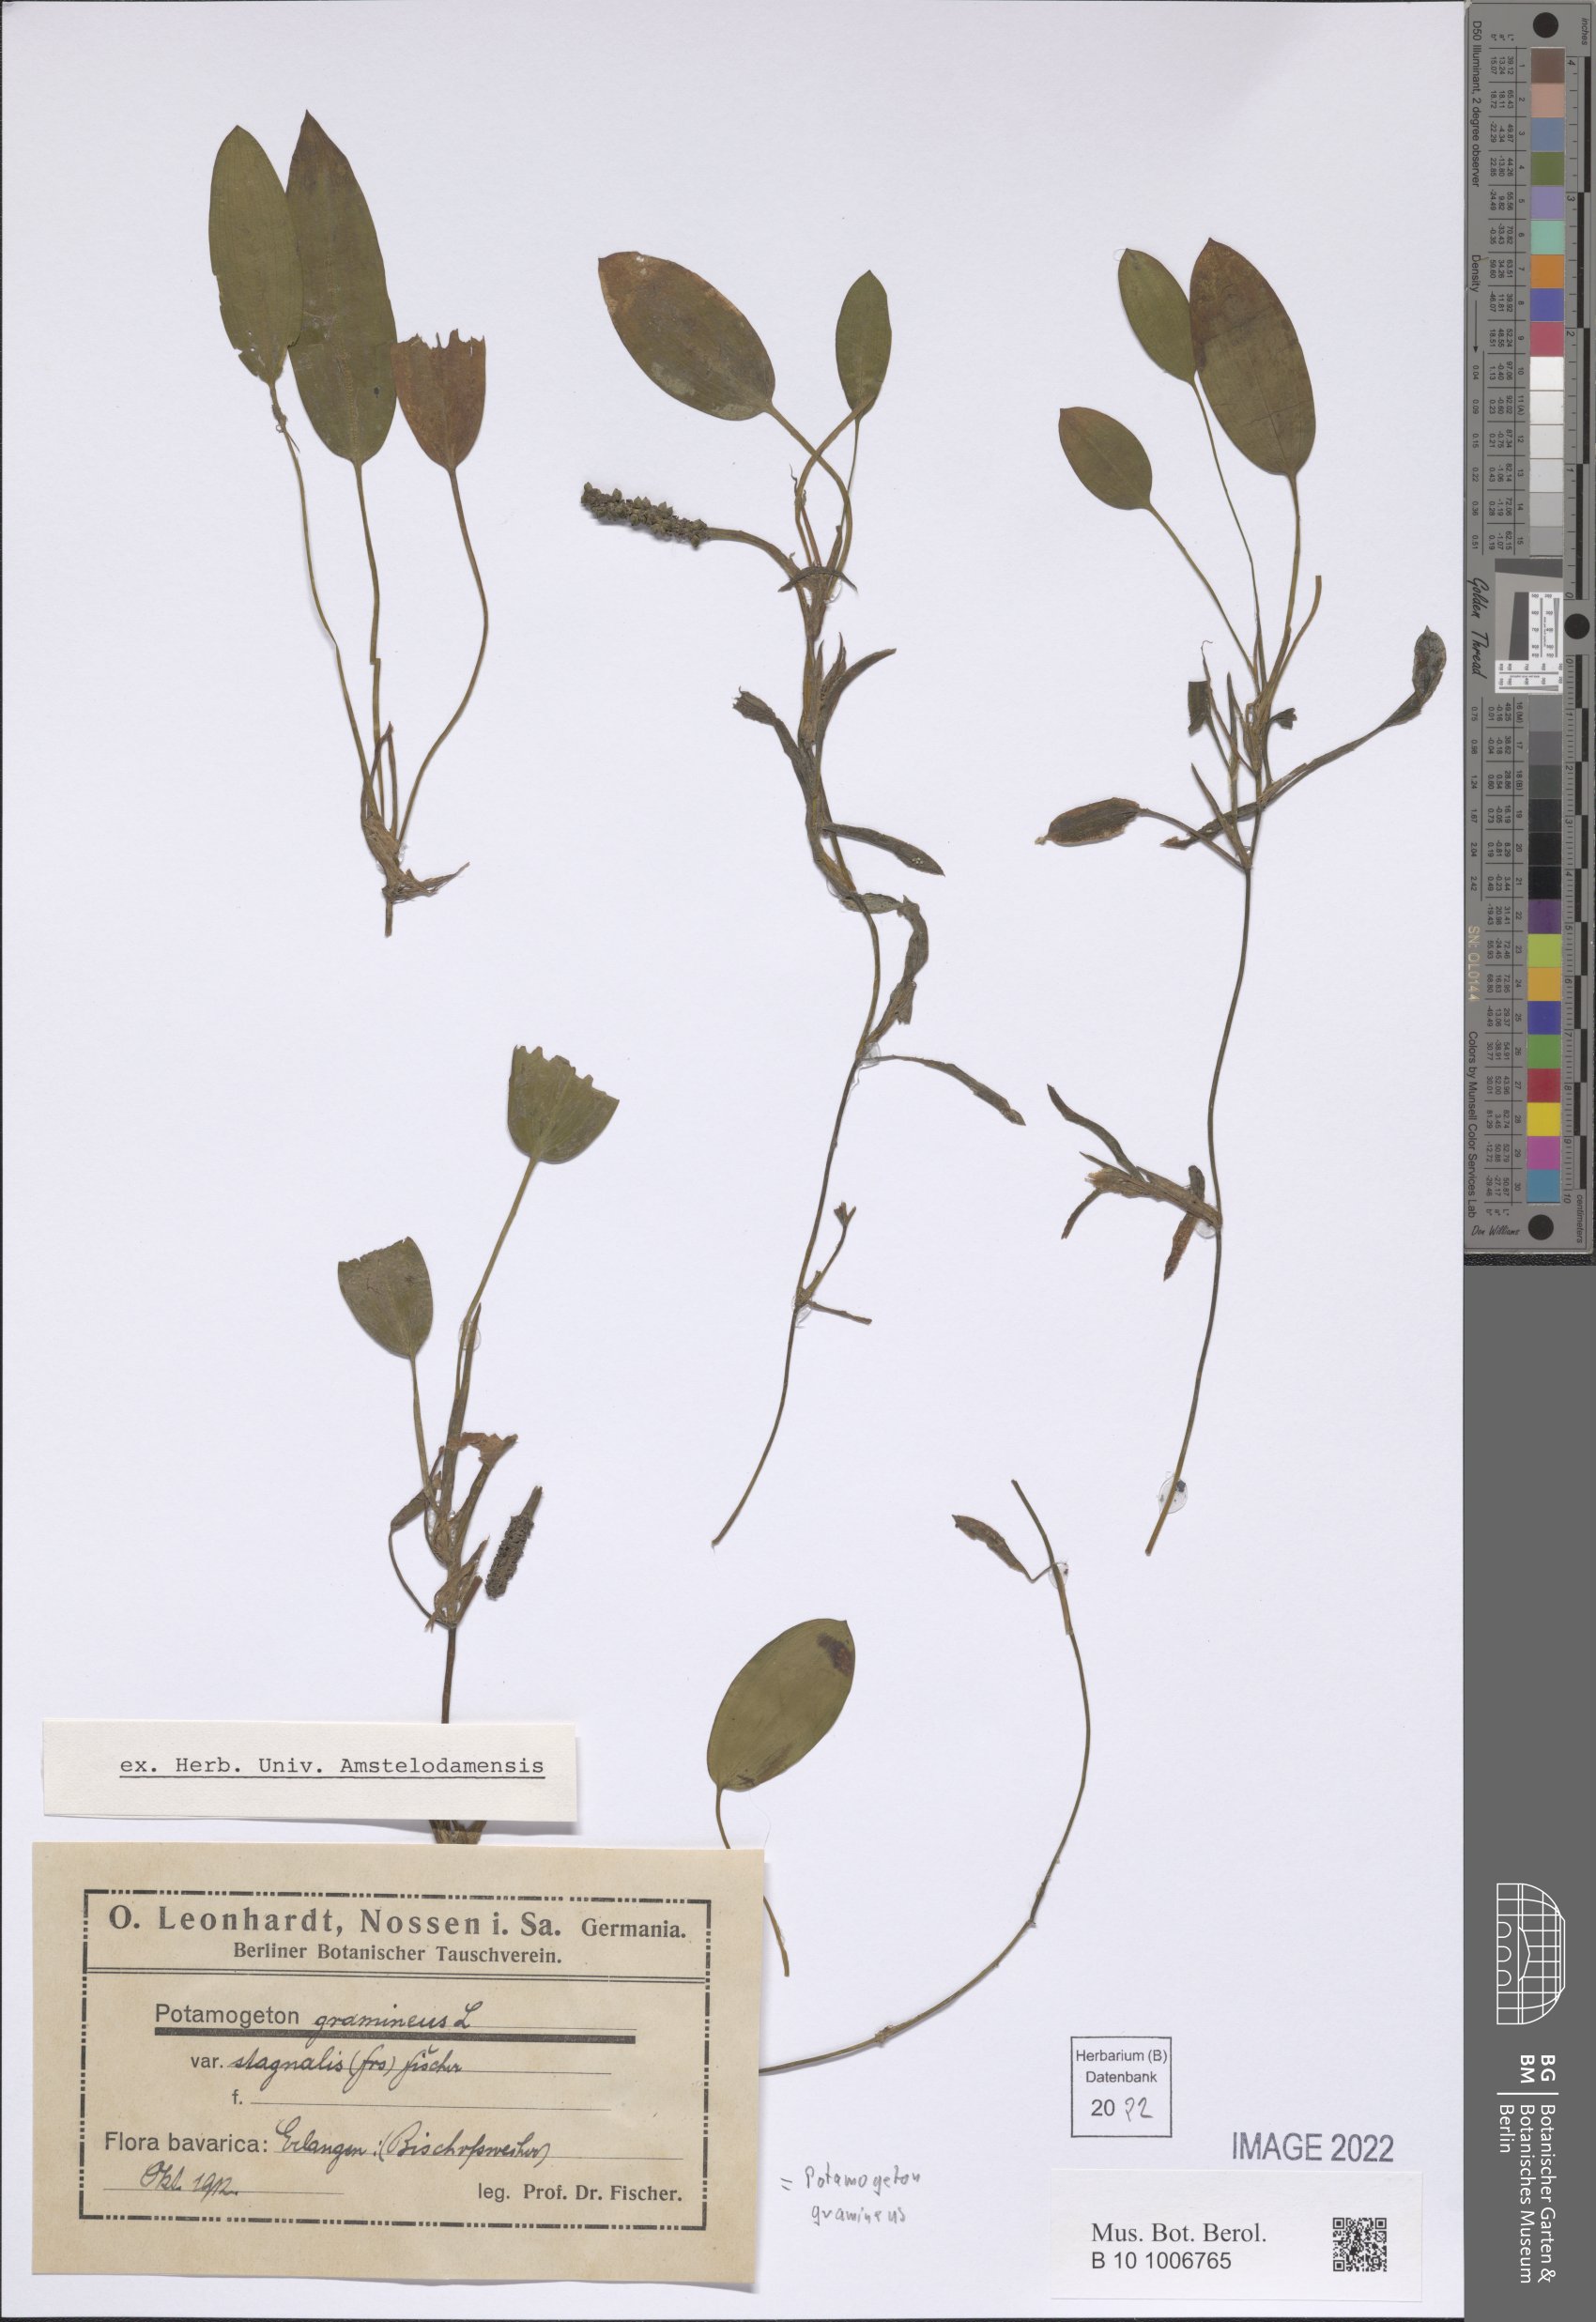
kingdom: Plantae
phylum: Tracheophyta
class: Liliopsida
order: Alismatales
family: Potamogetonaceae
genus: Potamogeton
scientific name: Potamogeton gramineus
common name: Various-leaved pondweed
